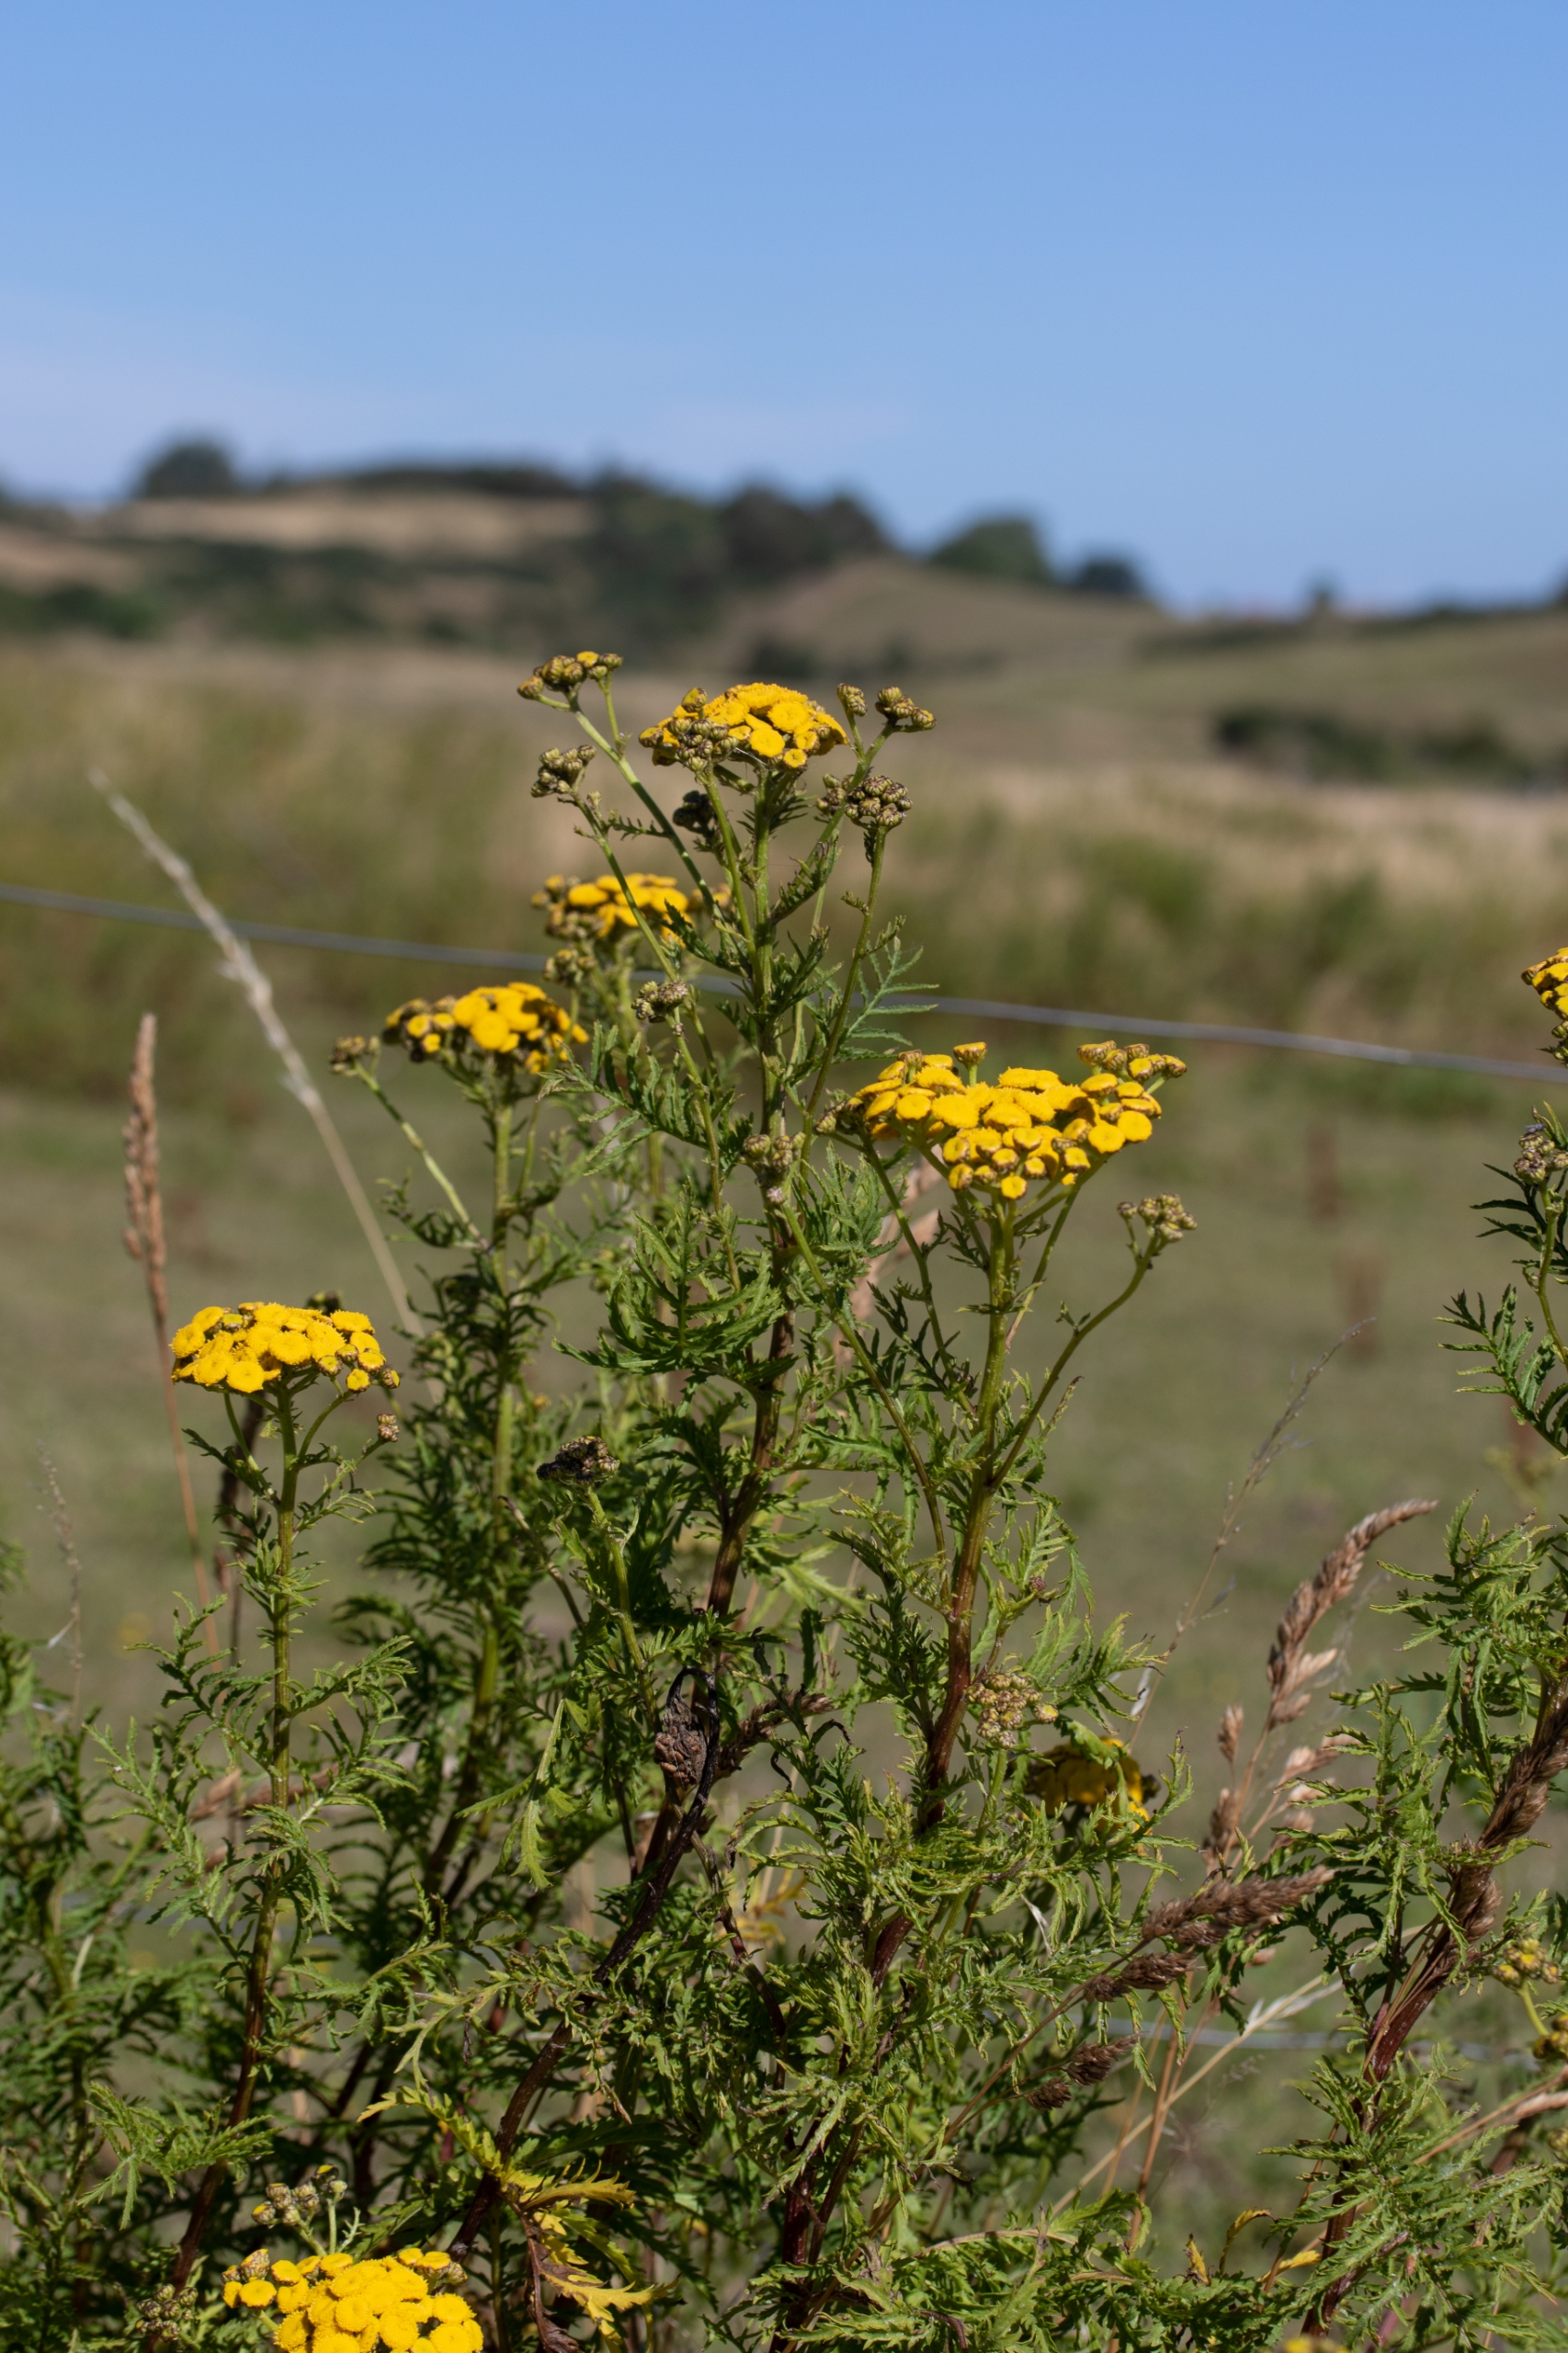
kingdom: Plantae
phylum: Tracheophyta
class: Magnoliopsida
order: Asterales
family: Asteraceae
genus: Tanacetum
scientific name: Tanacetum vulgare
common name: Rejnfan
